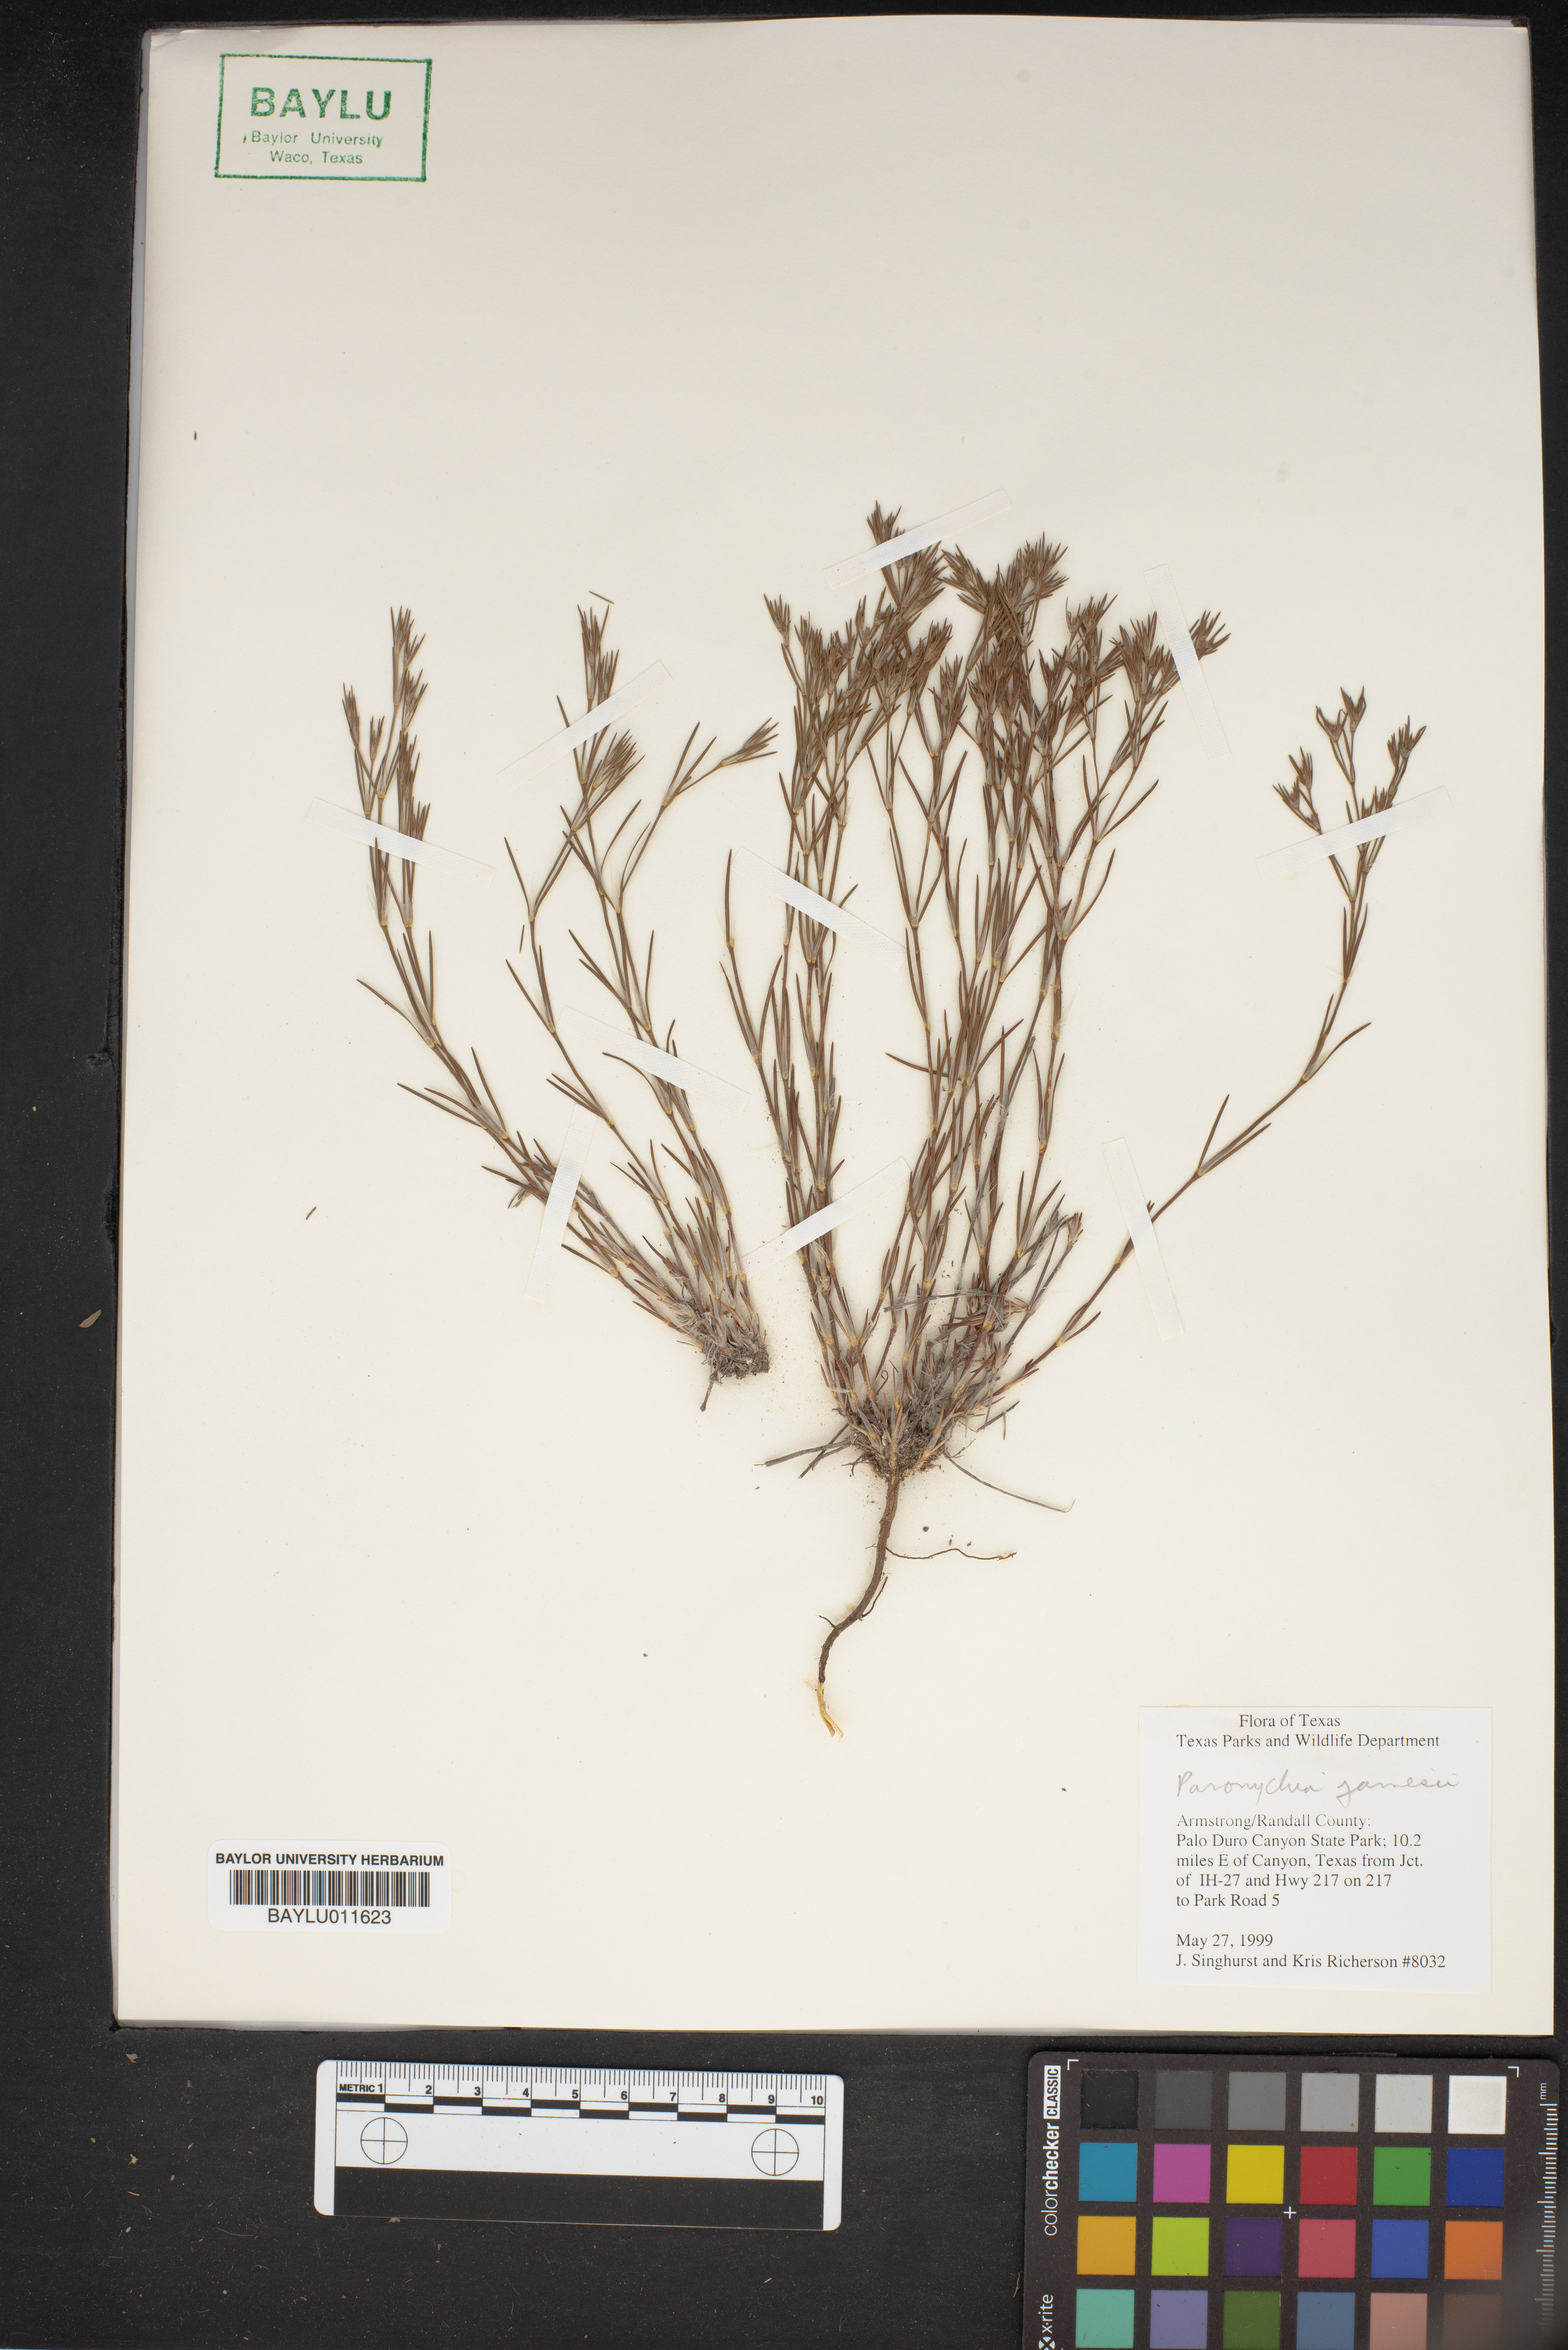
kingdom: Plantae
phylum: Tracheophyta
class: Magnoliopsida
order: Caryophyllales
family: Caryophyllaceae
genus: Paronychia
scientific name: Paronychia jamesii
